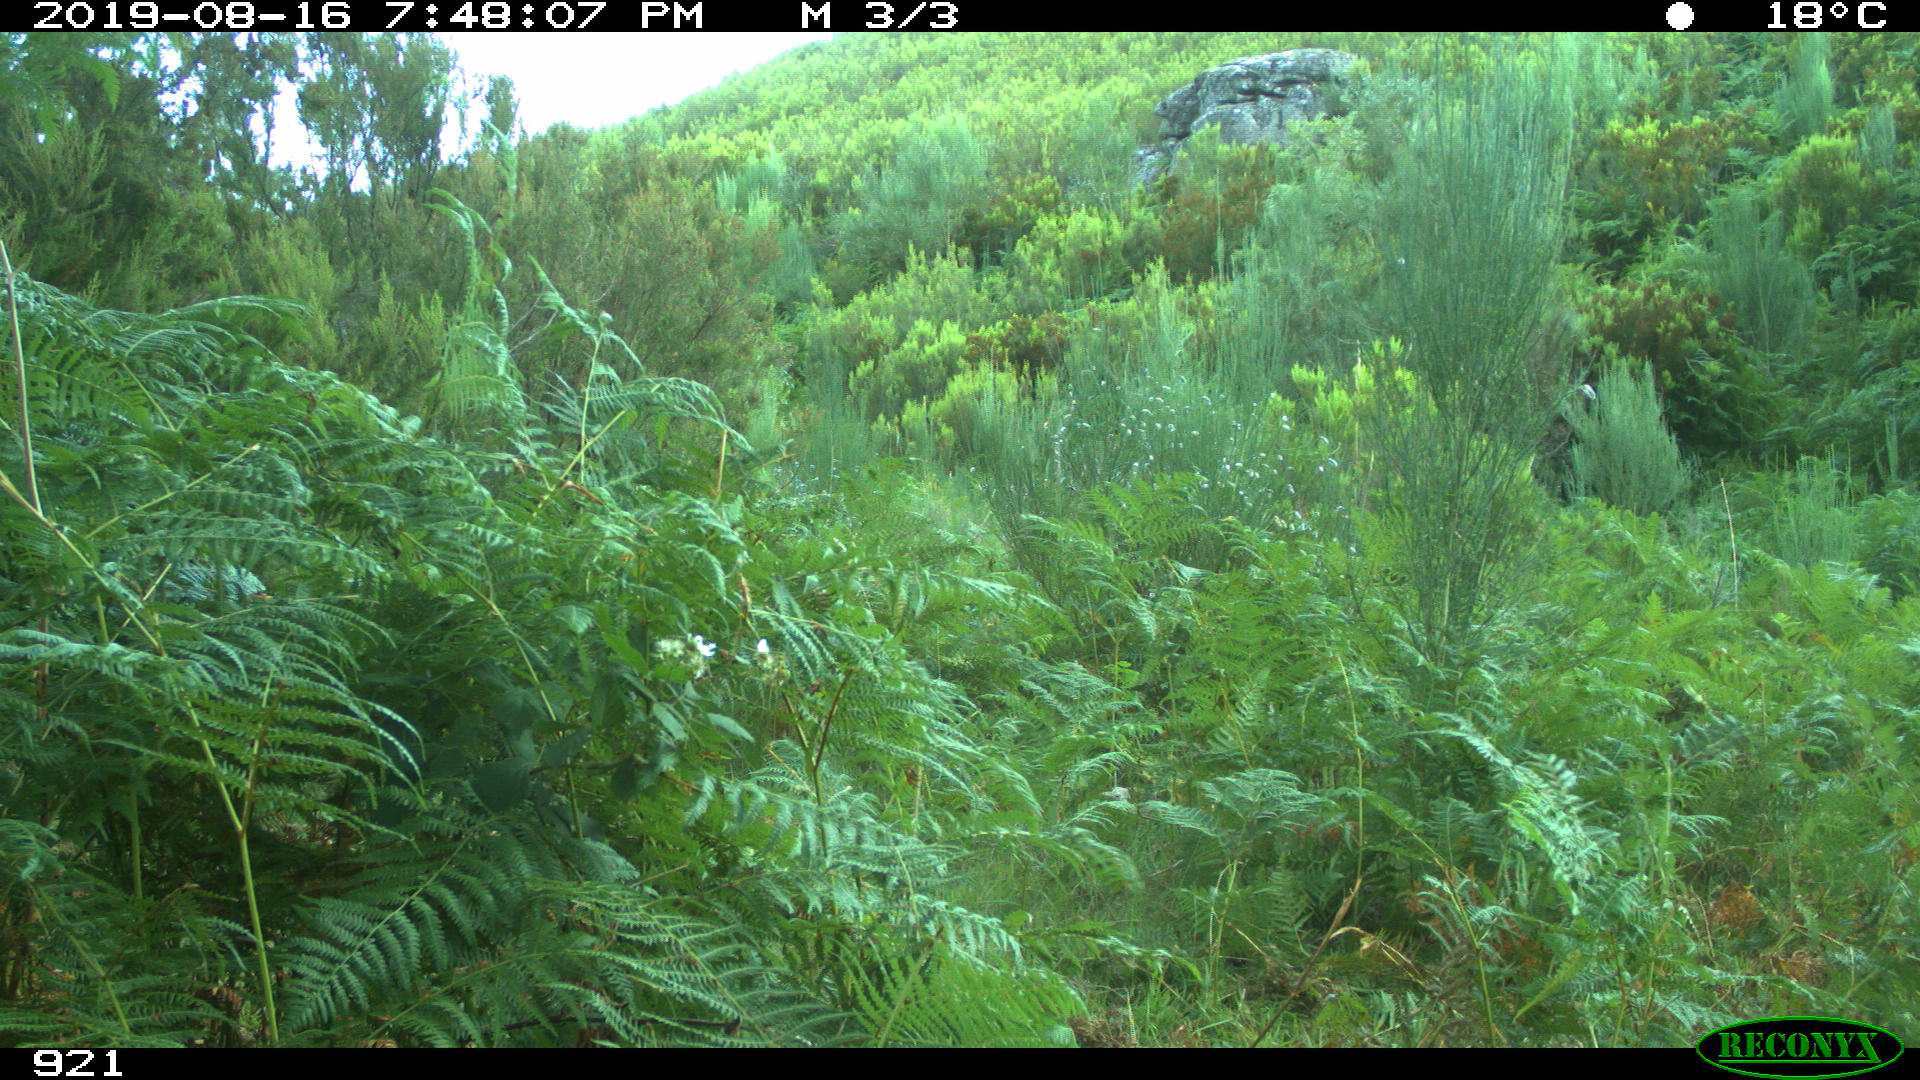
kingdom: Animalia
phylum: Chordata
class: Mammalia
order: Perissodactyla
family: Equidae
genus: Equus
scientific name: Equus caballus
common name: Horse
